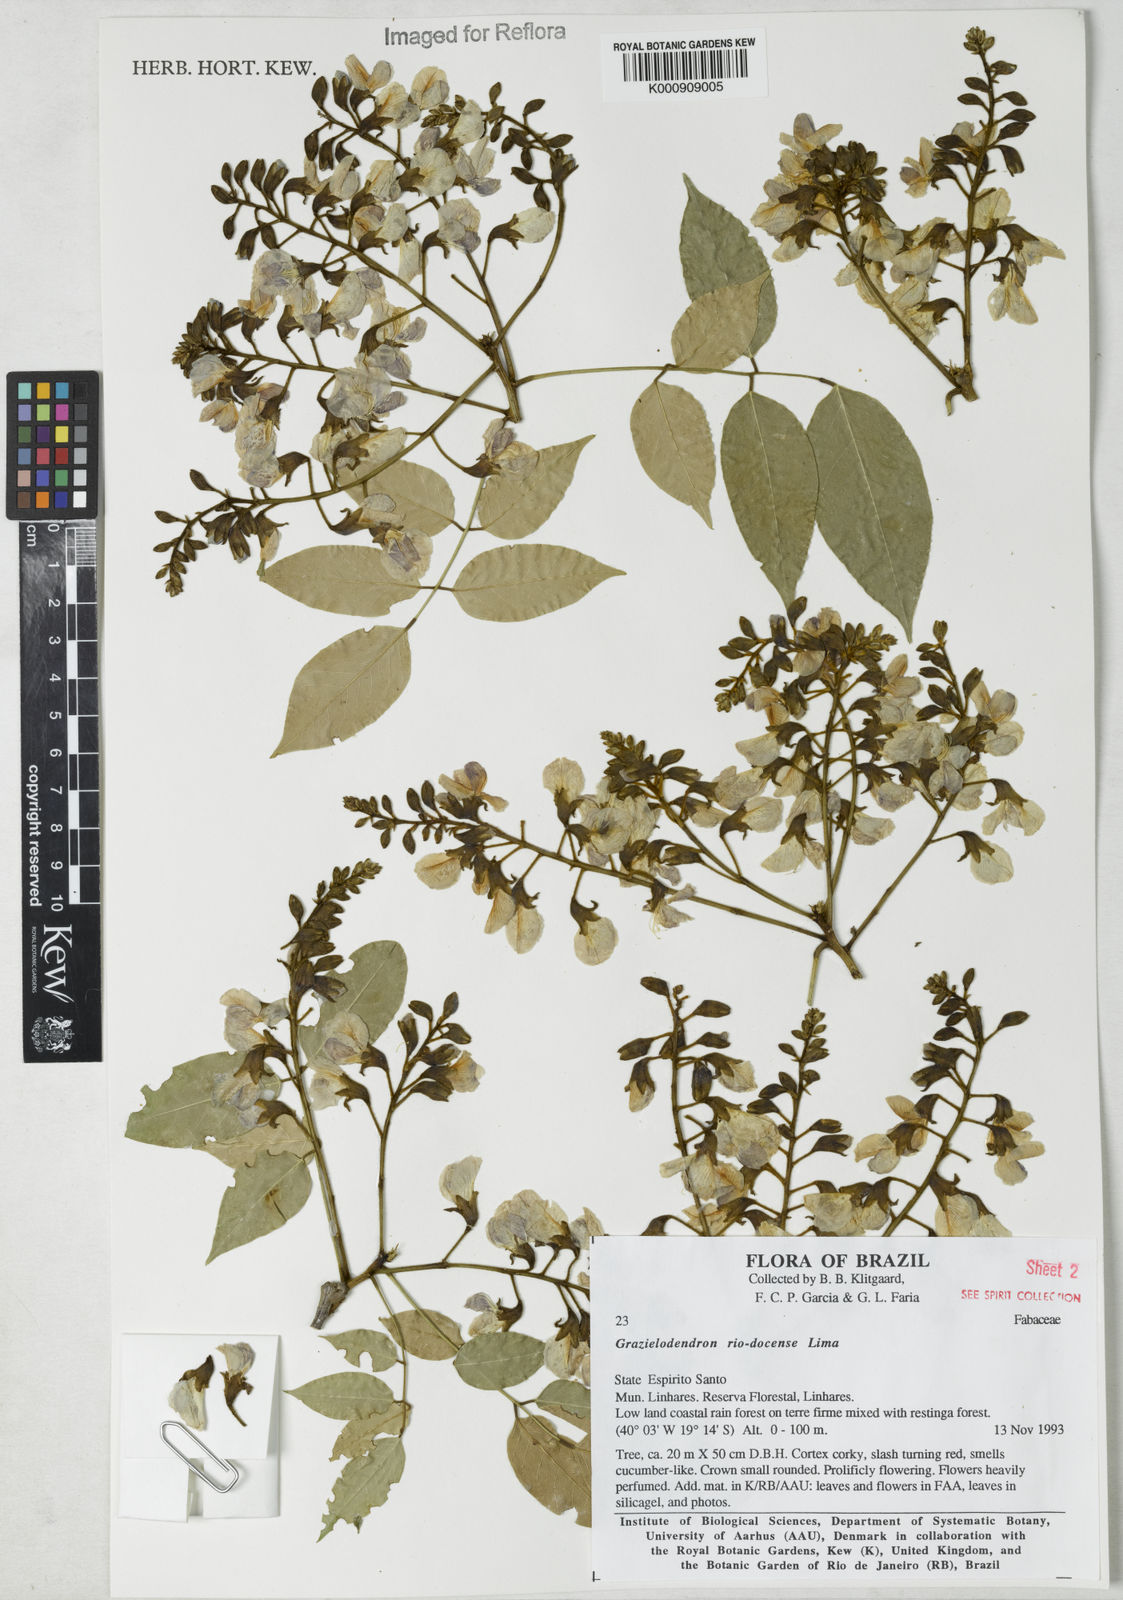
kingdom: Plantae
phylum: Tracheophyta
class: Magnoliopsida
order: Fabales
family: Fabaceae
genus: Grazielodendron
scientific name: Grazielodendron riodocensis
